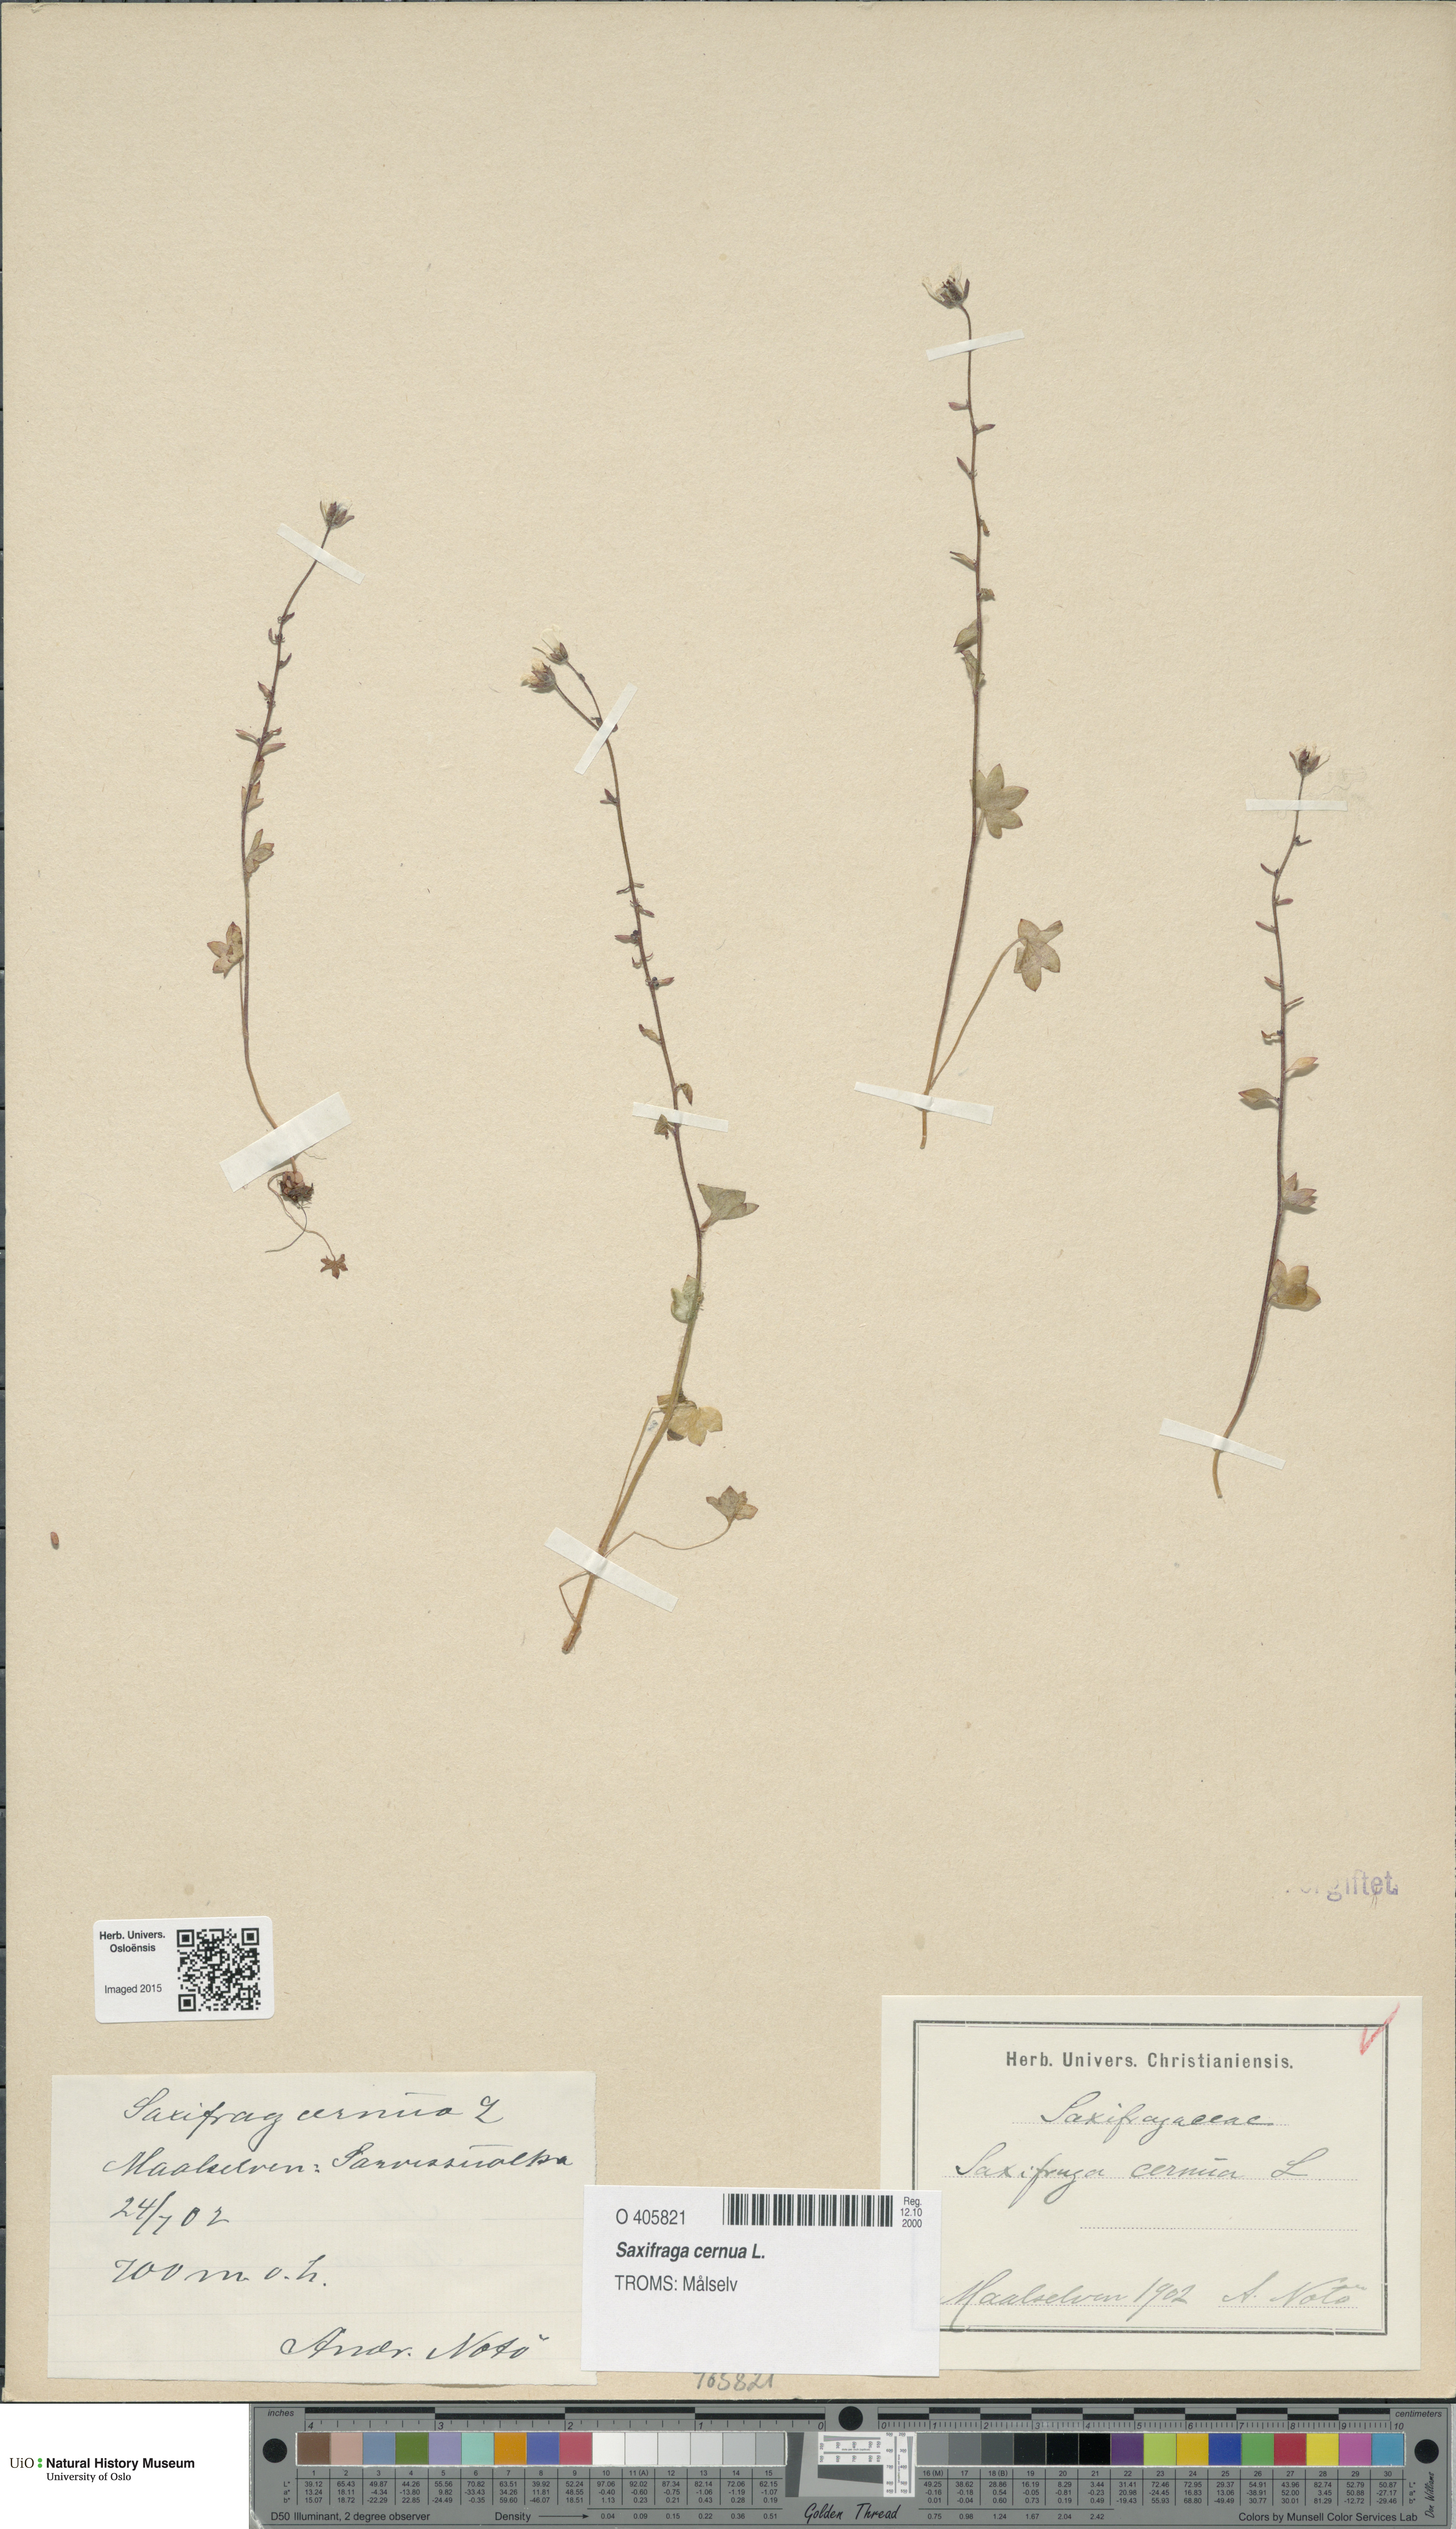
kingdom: Plantae
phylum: Tracheophyta
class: Magnoliopsida
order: Saxifragales
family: Saxifragaceae
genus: Saxifraga
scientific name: Saxifraga cernua
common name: Drooping saxifrage
